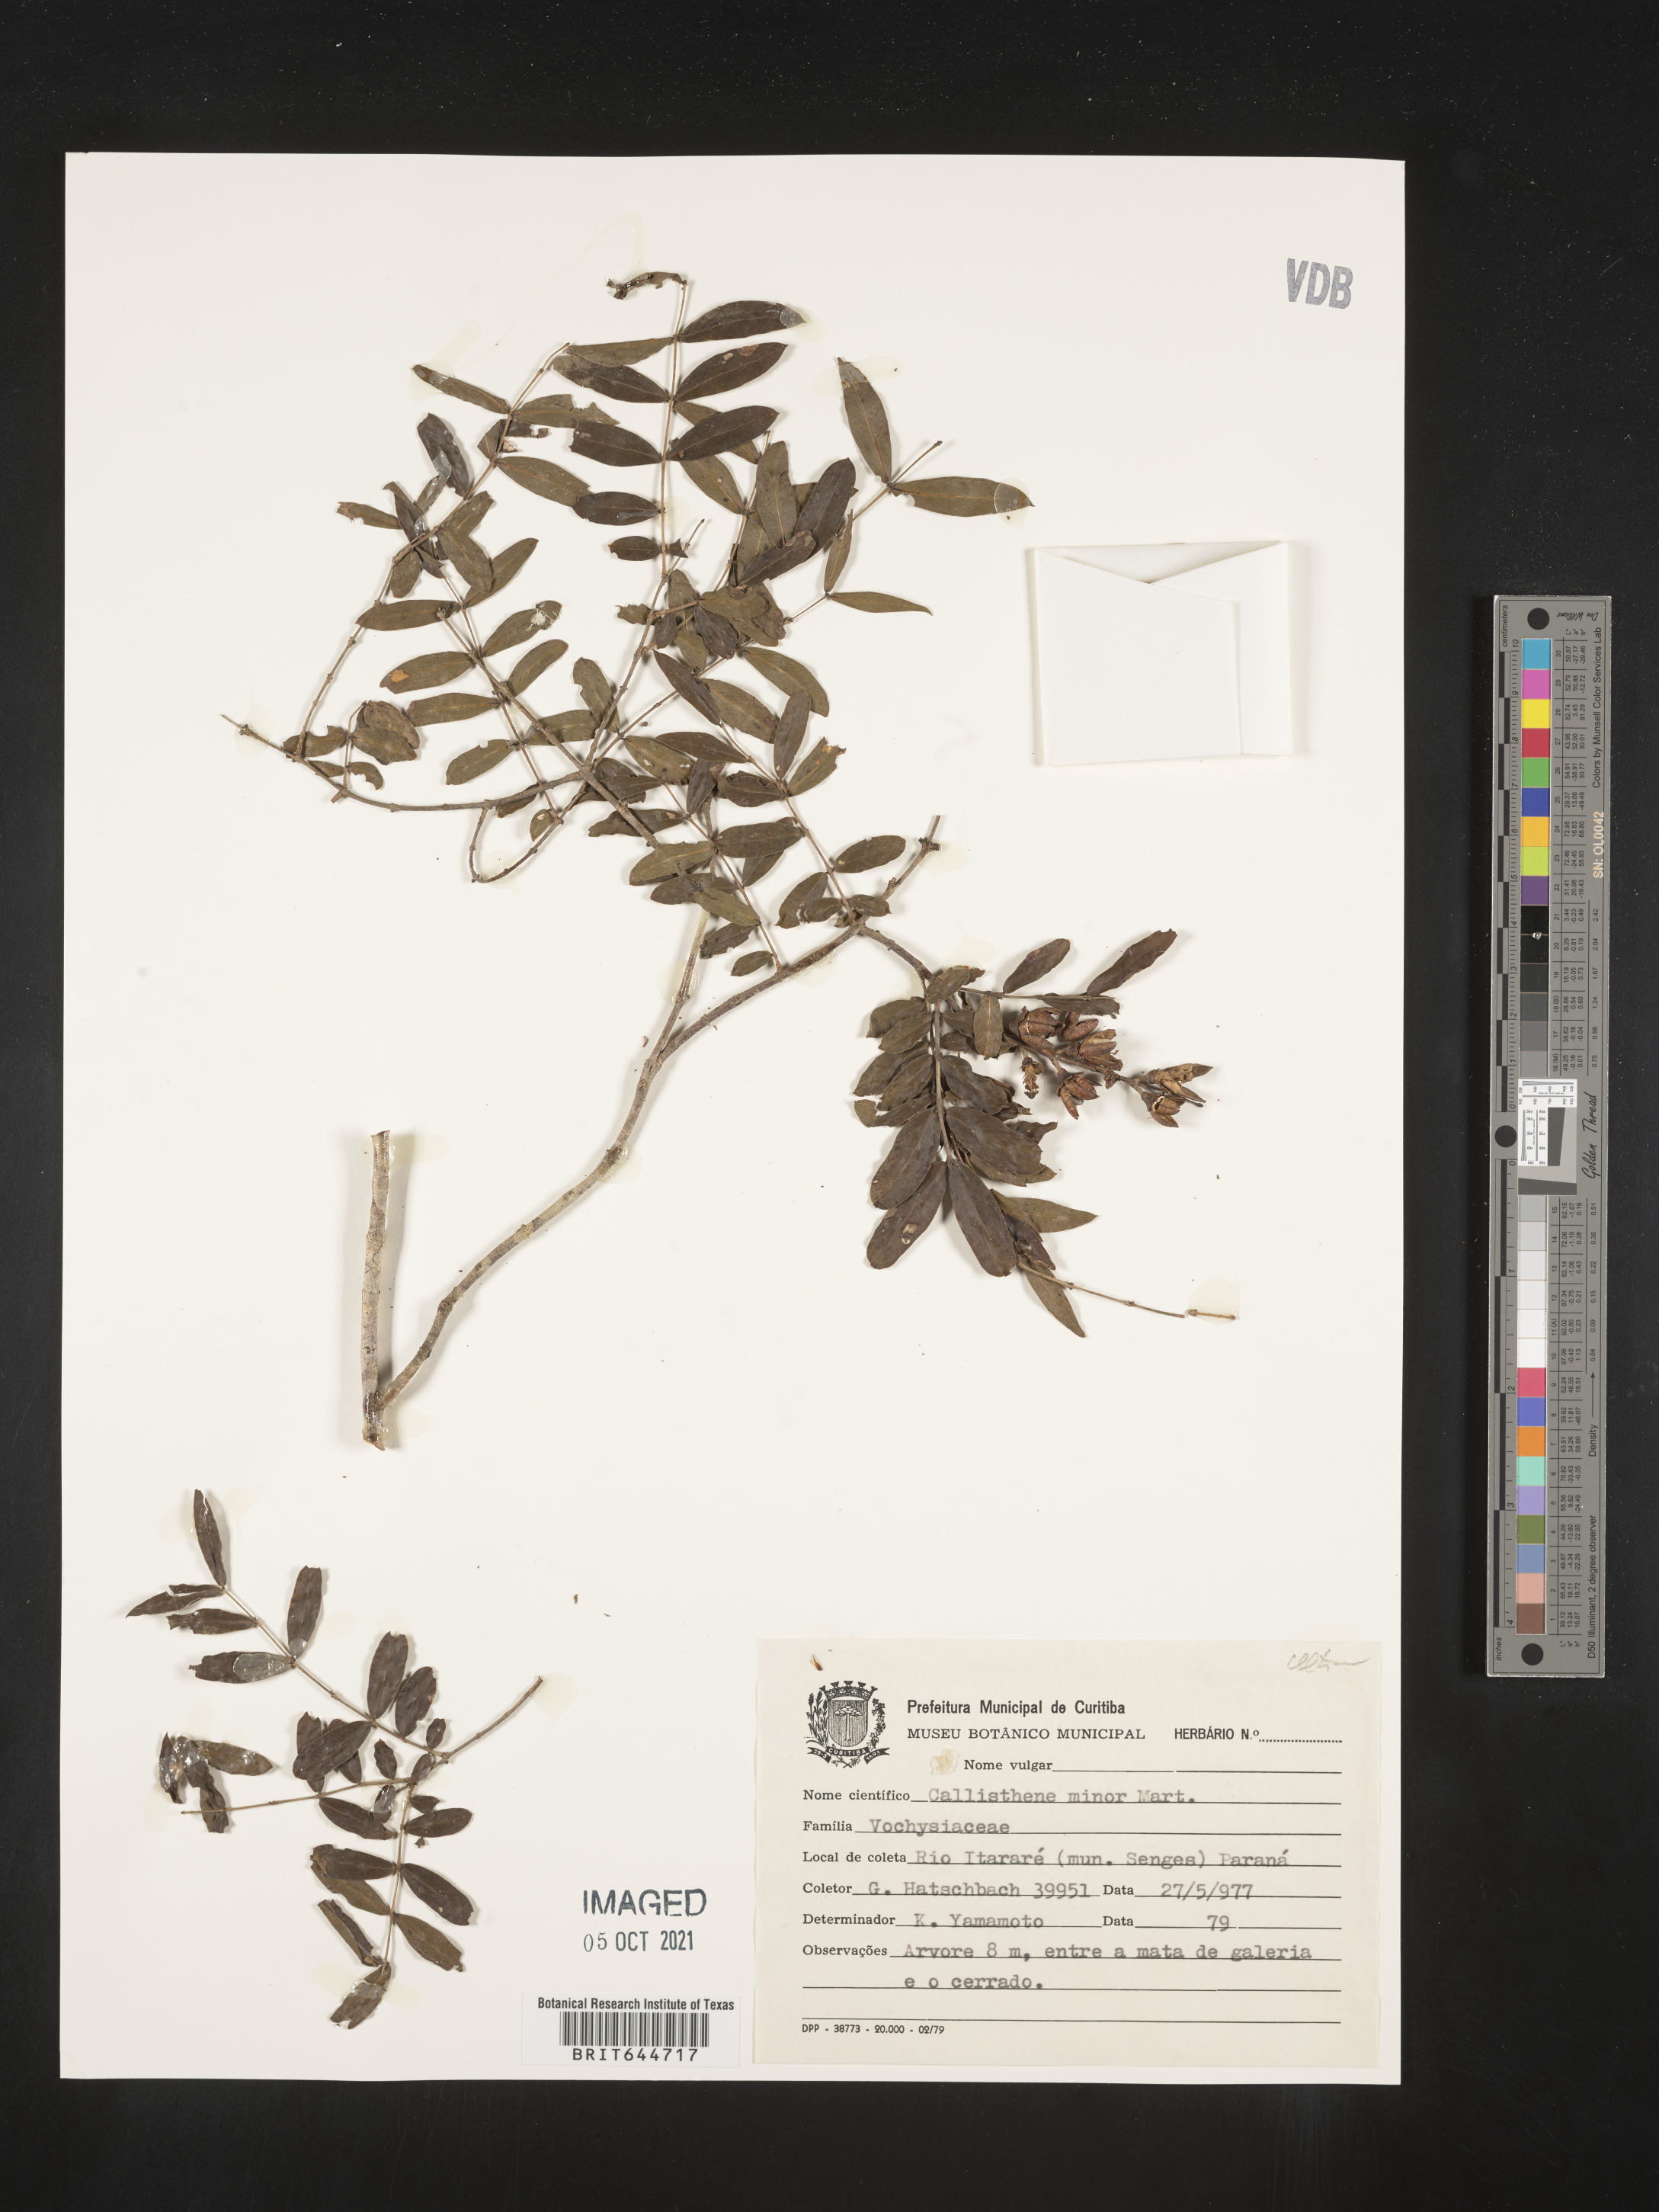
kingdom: Plantae
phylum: Tracheophyta
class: Magnoliopsida
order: Myrtales
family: Vochysiaceae
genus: Callisthene
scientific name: Callisthene
